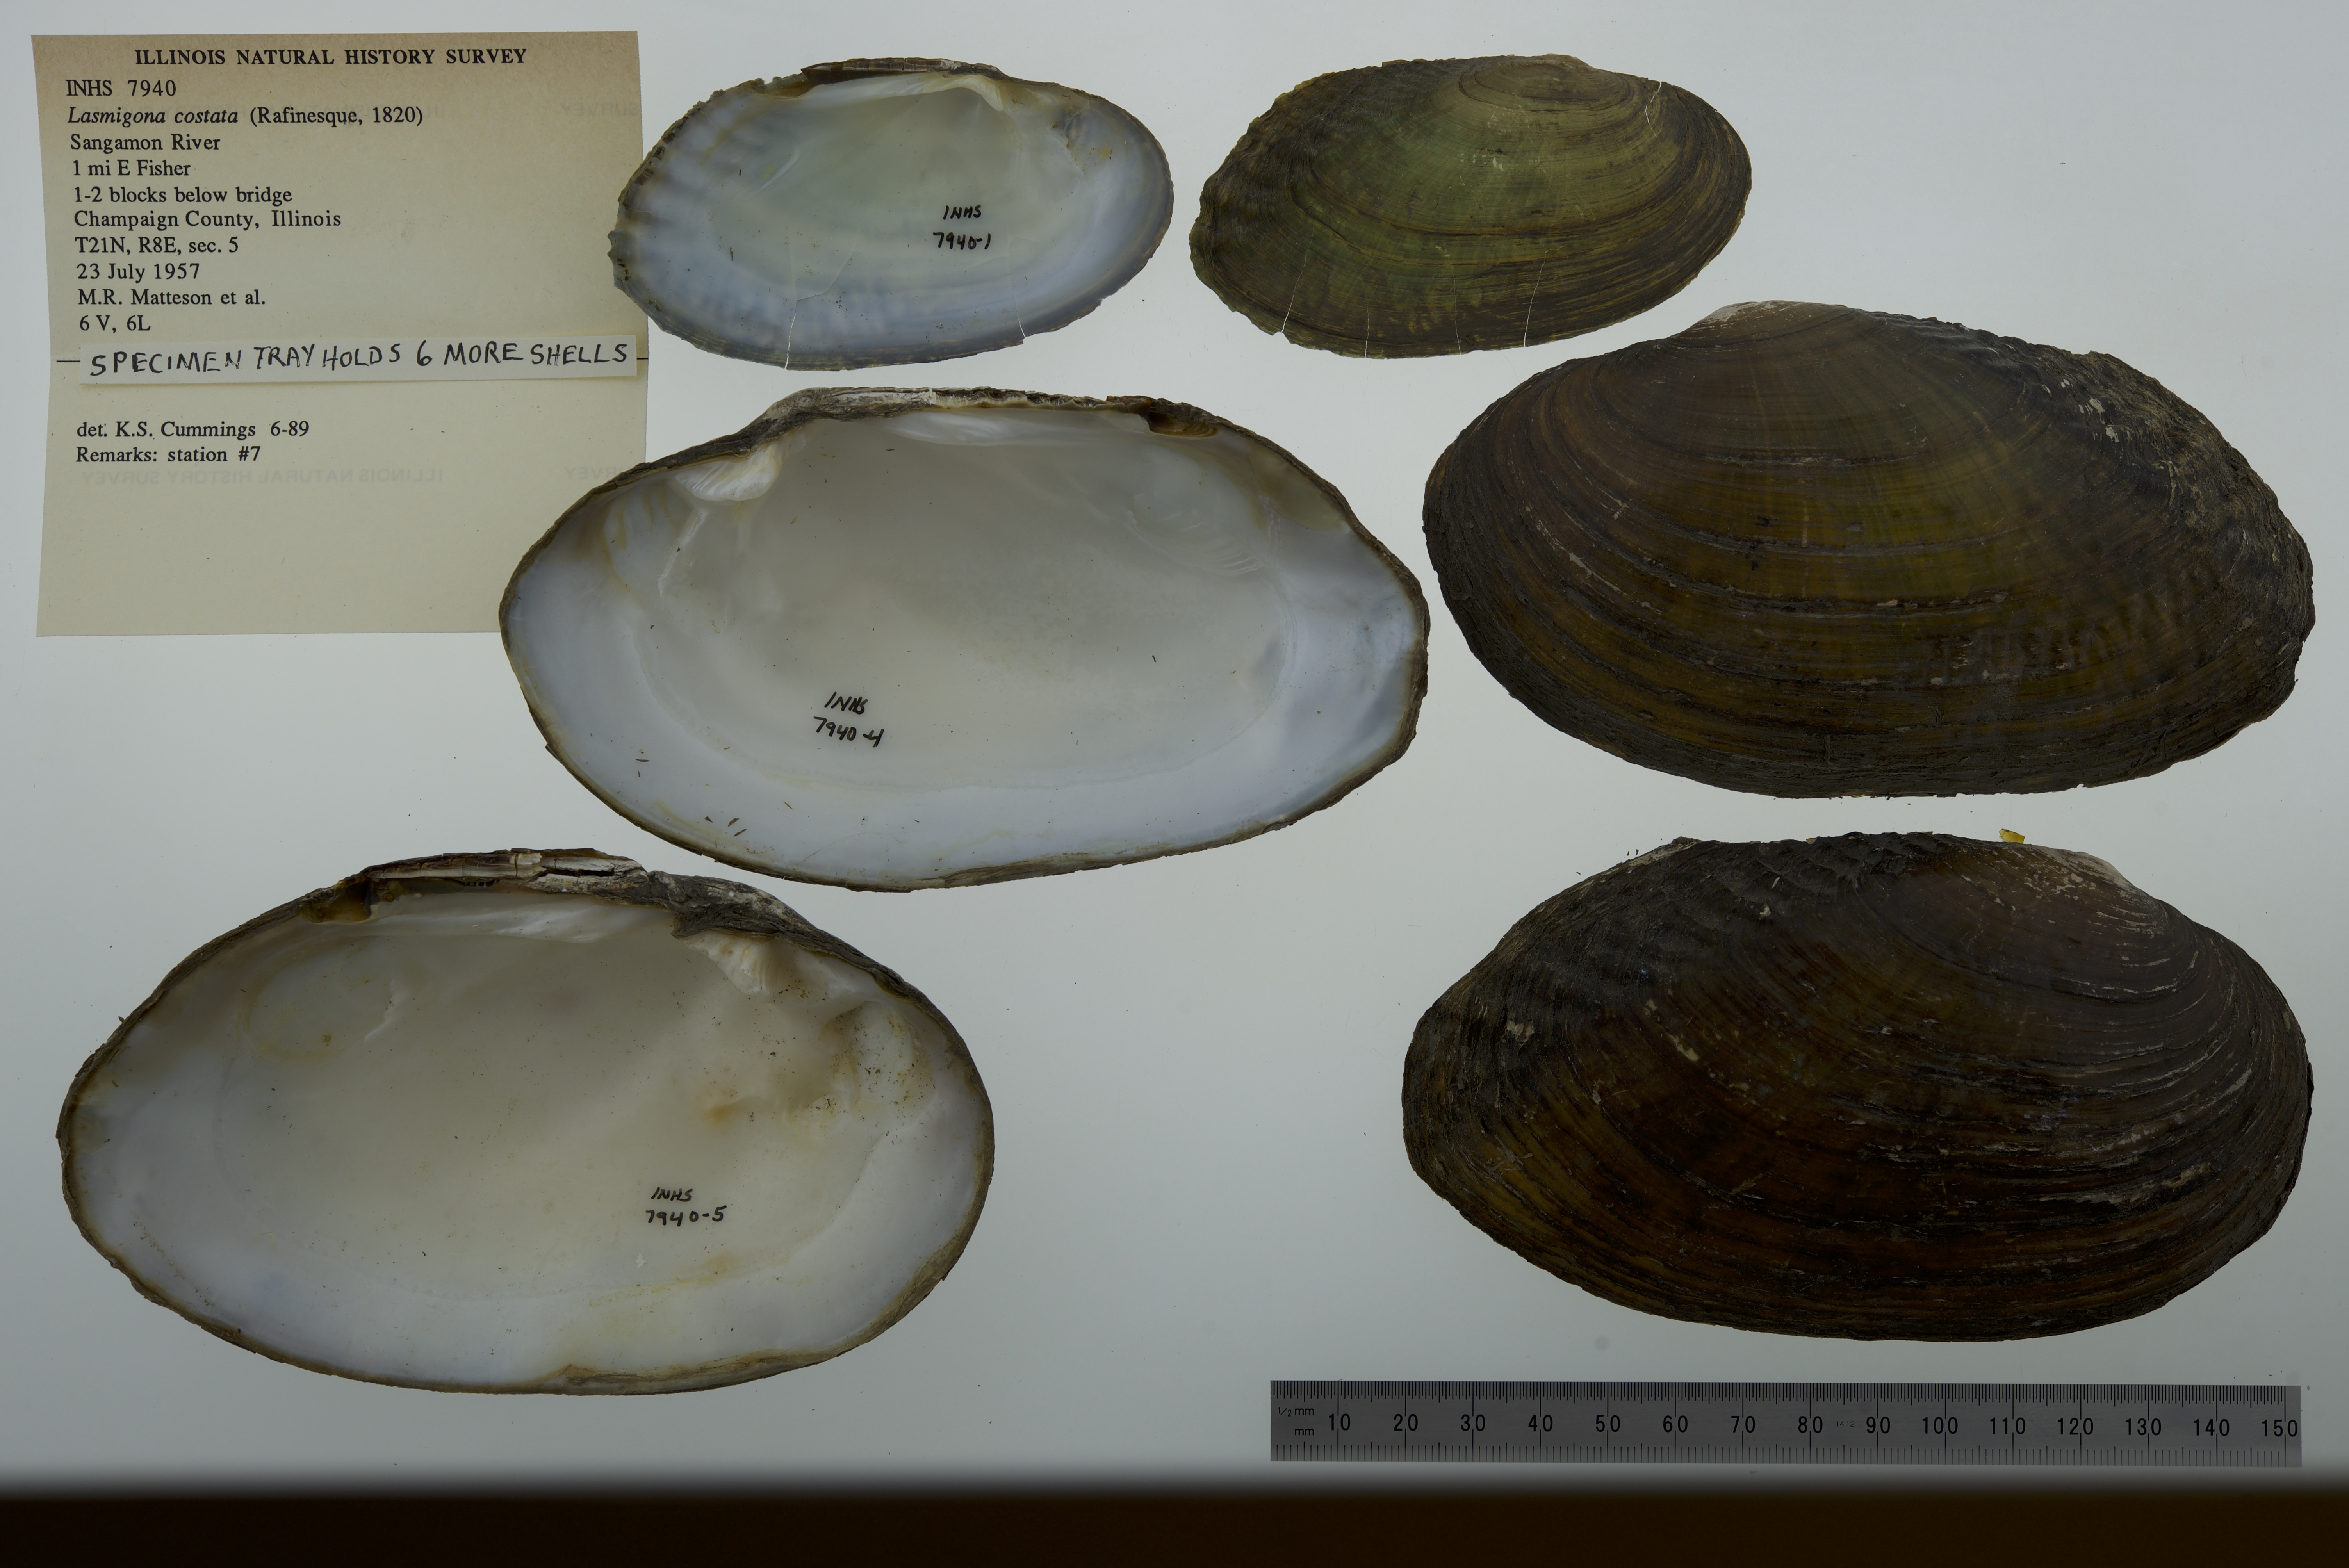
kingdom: Animalia
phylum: Mollusca
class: Bivalvia
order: Unionida
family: Unionidae
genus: Lasmigona
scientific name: Lasmigona costata
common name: Flutedshell
